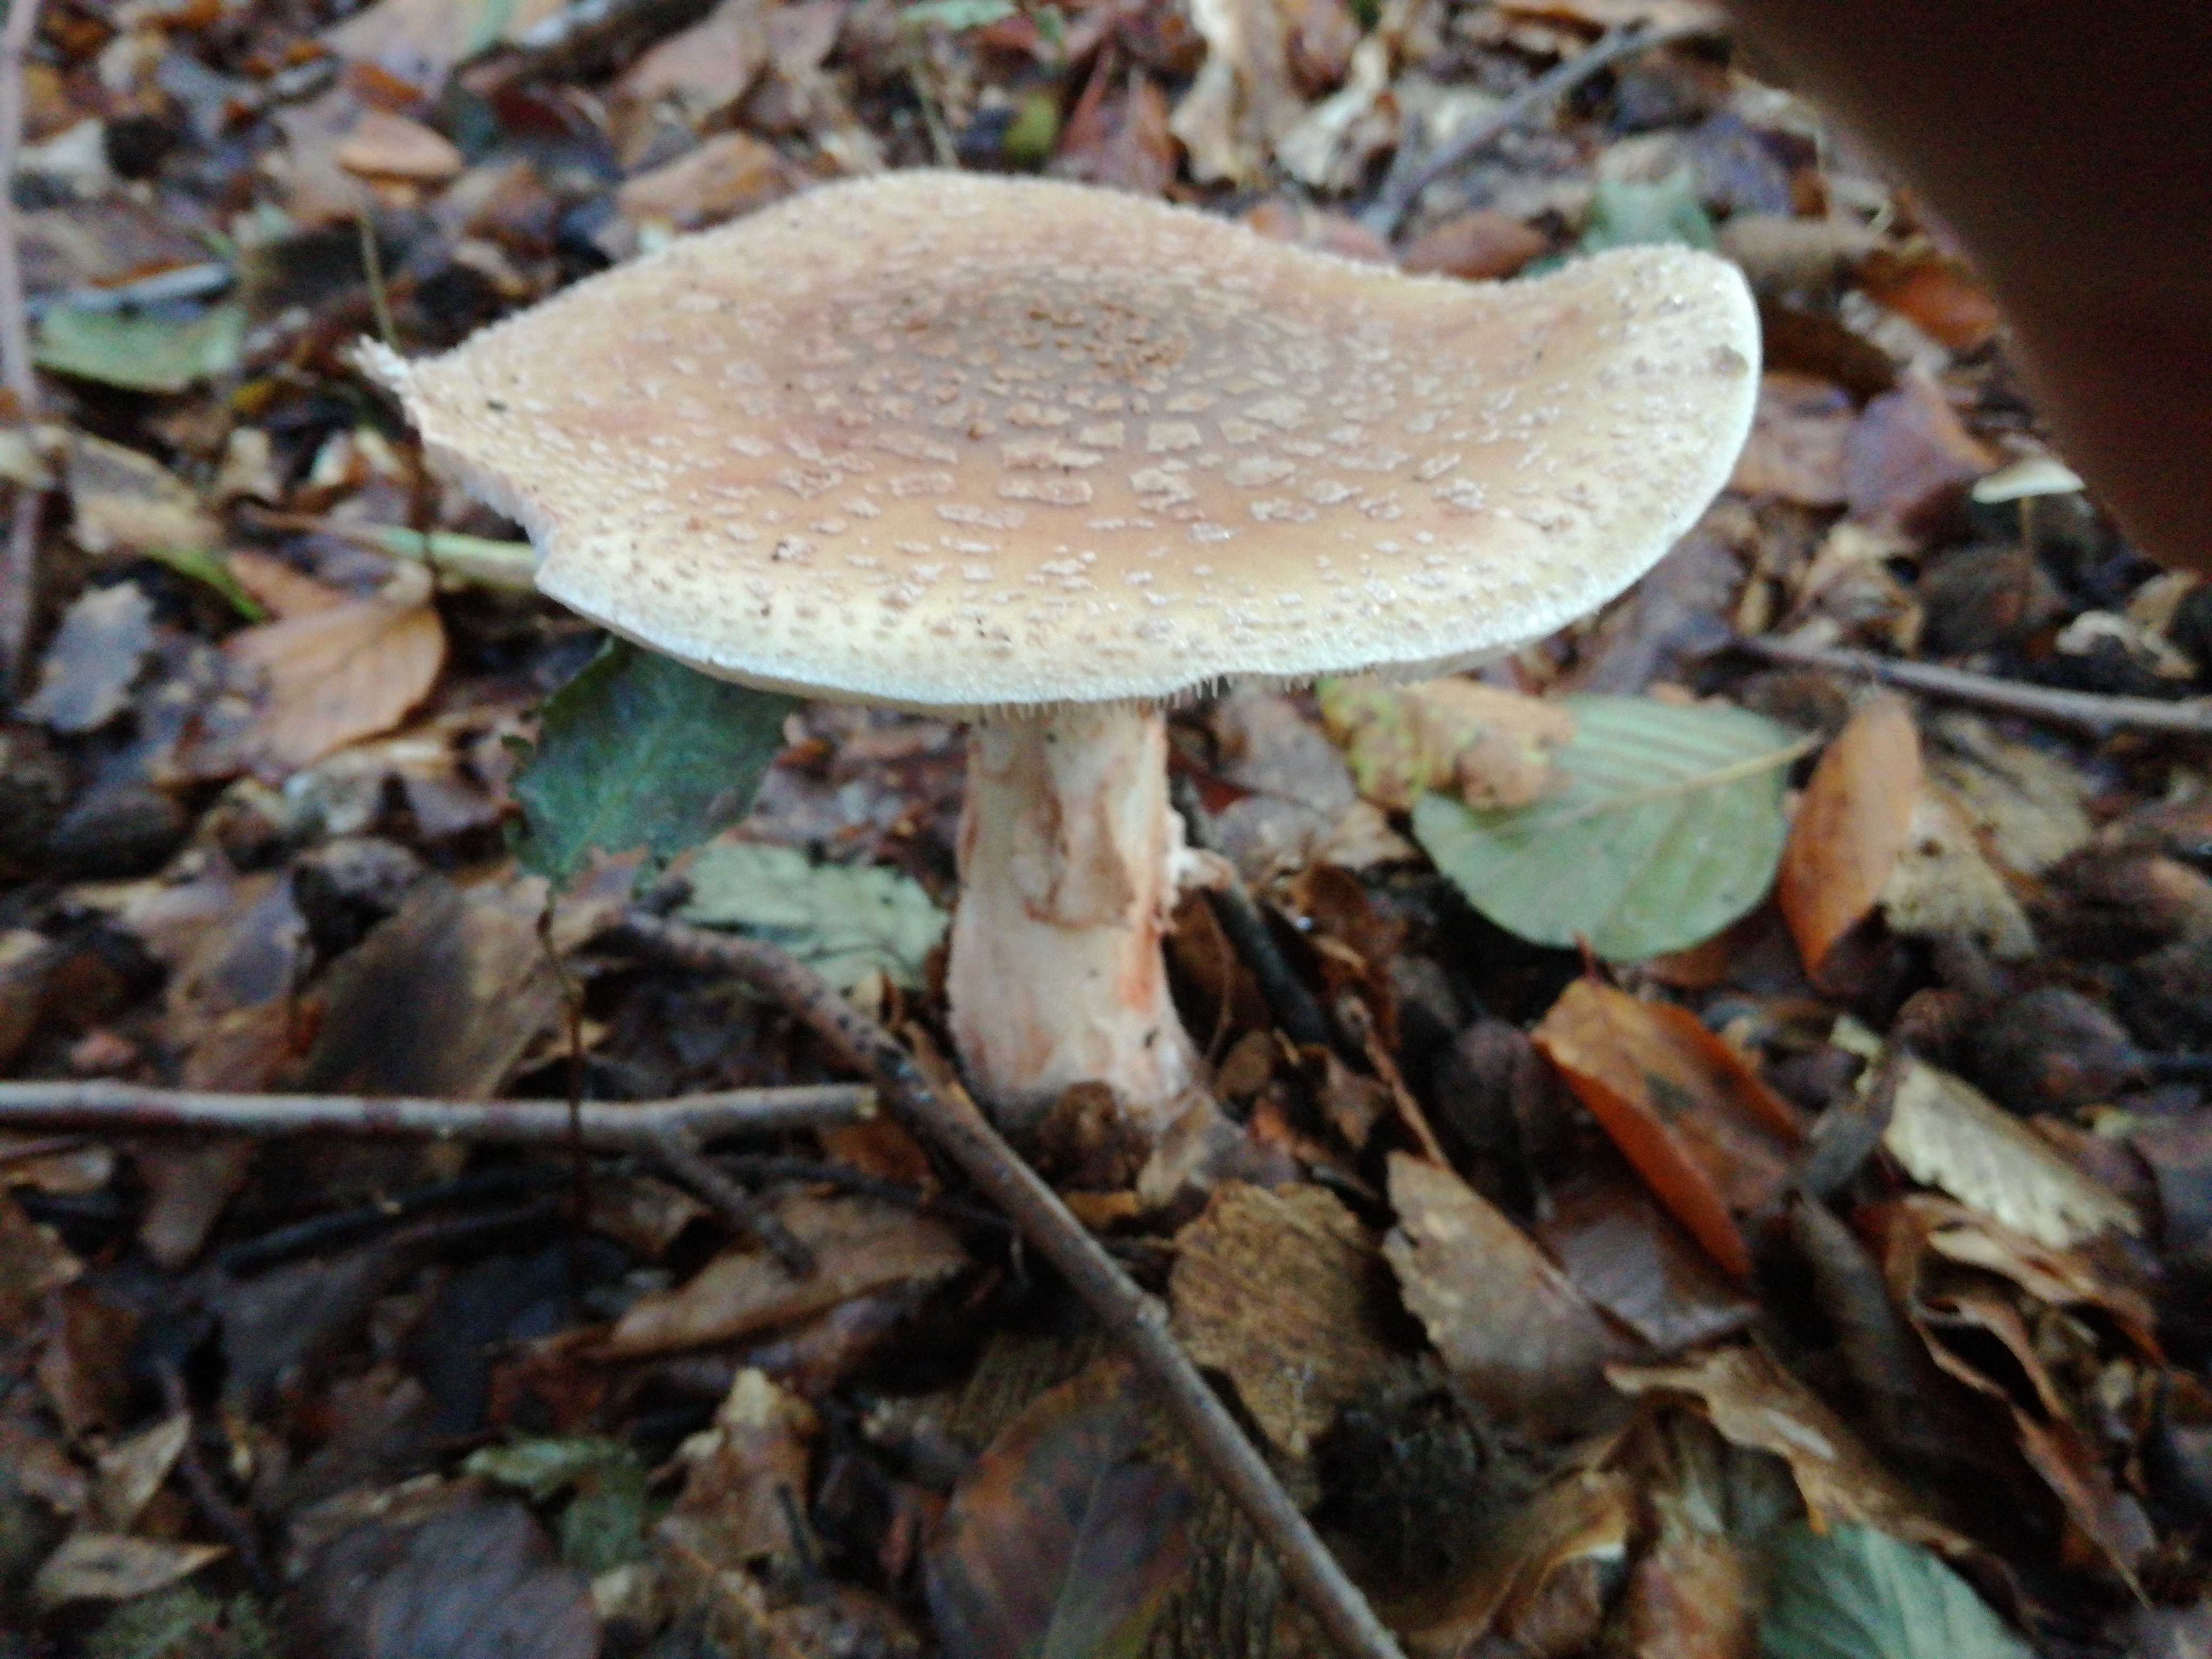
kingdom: Fungi
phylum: Basidiomycota
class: Agaricomycetes
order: Agaricales
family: Amanitaceae
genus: Amanita
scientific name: Amanita rubescens
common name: rødmende fluesvamp
